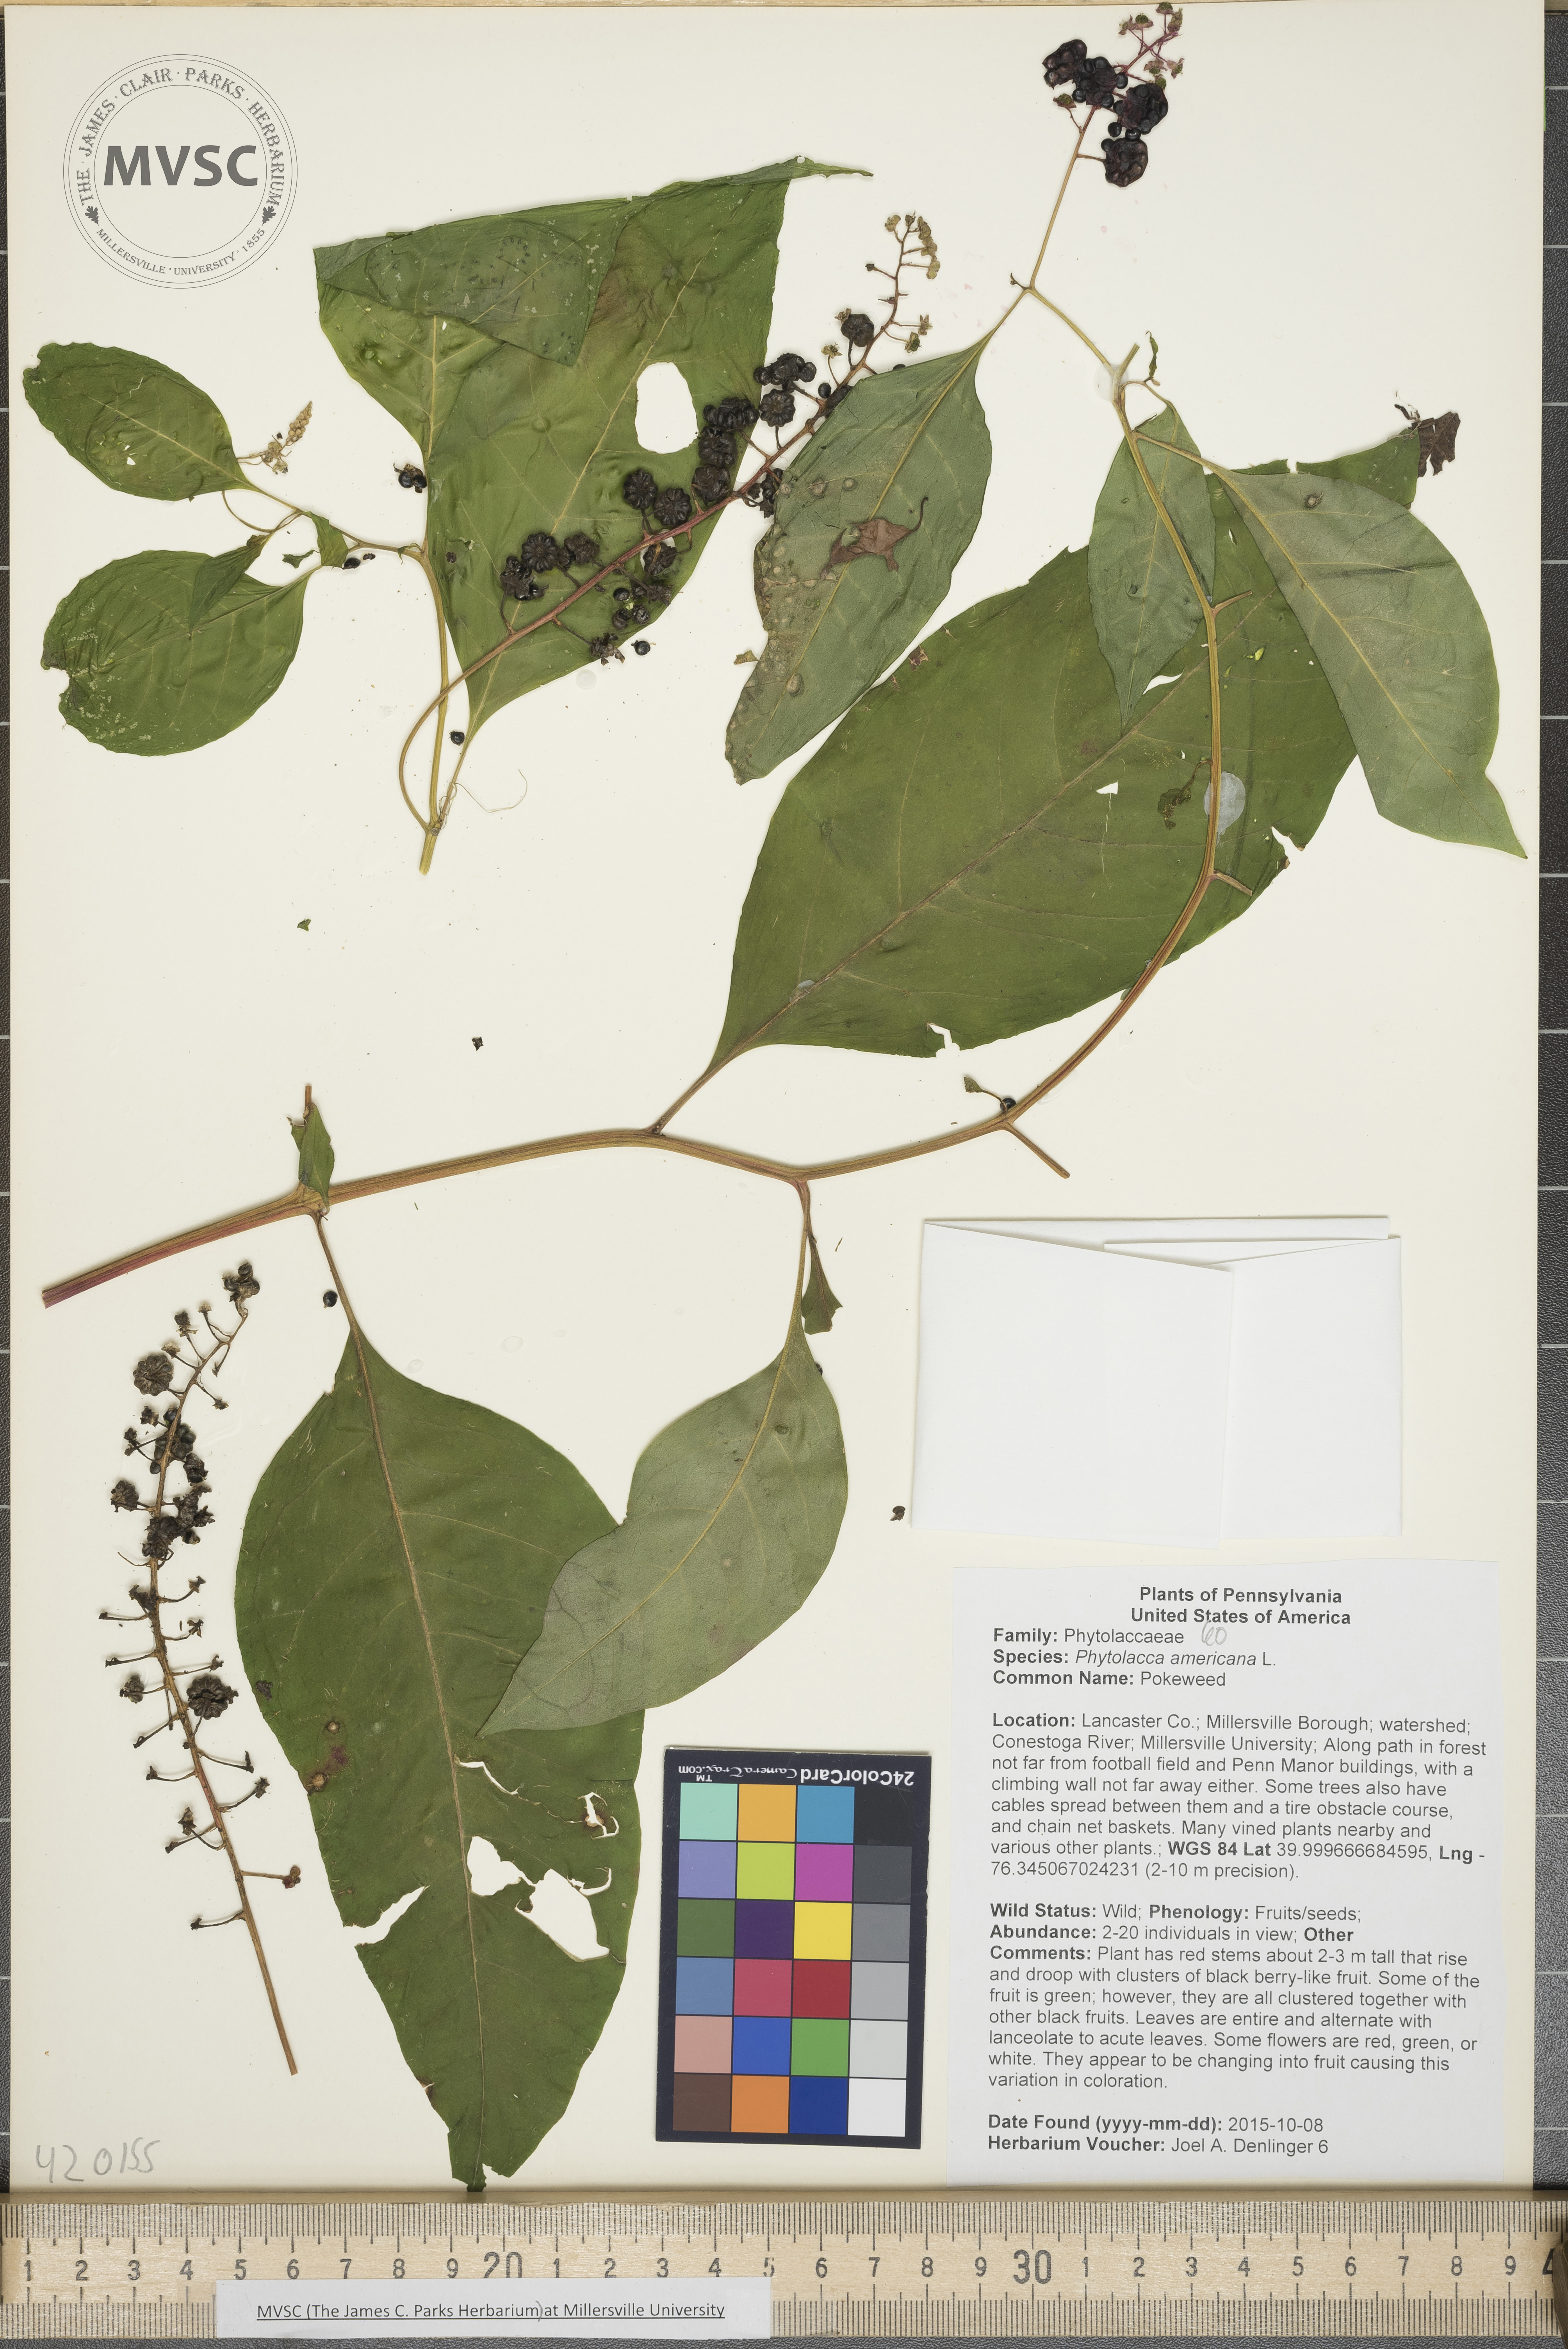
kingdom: Plantae
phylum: Tracheophyta
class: Magnoliopsida
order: Caryophyllales
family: Phytolaccaceae
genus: Phytolacca
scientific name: Phytolacca americana
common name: Pokeweed
